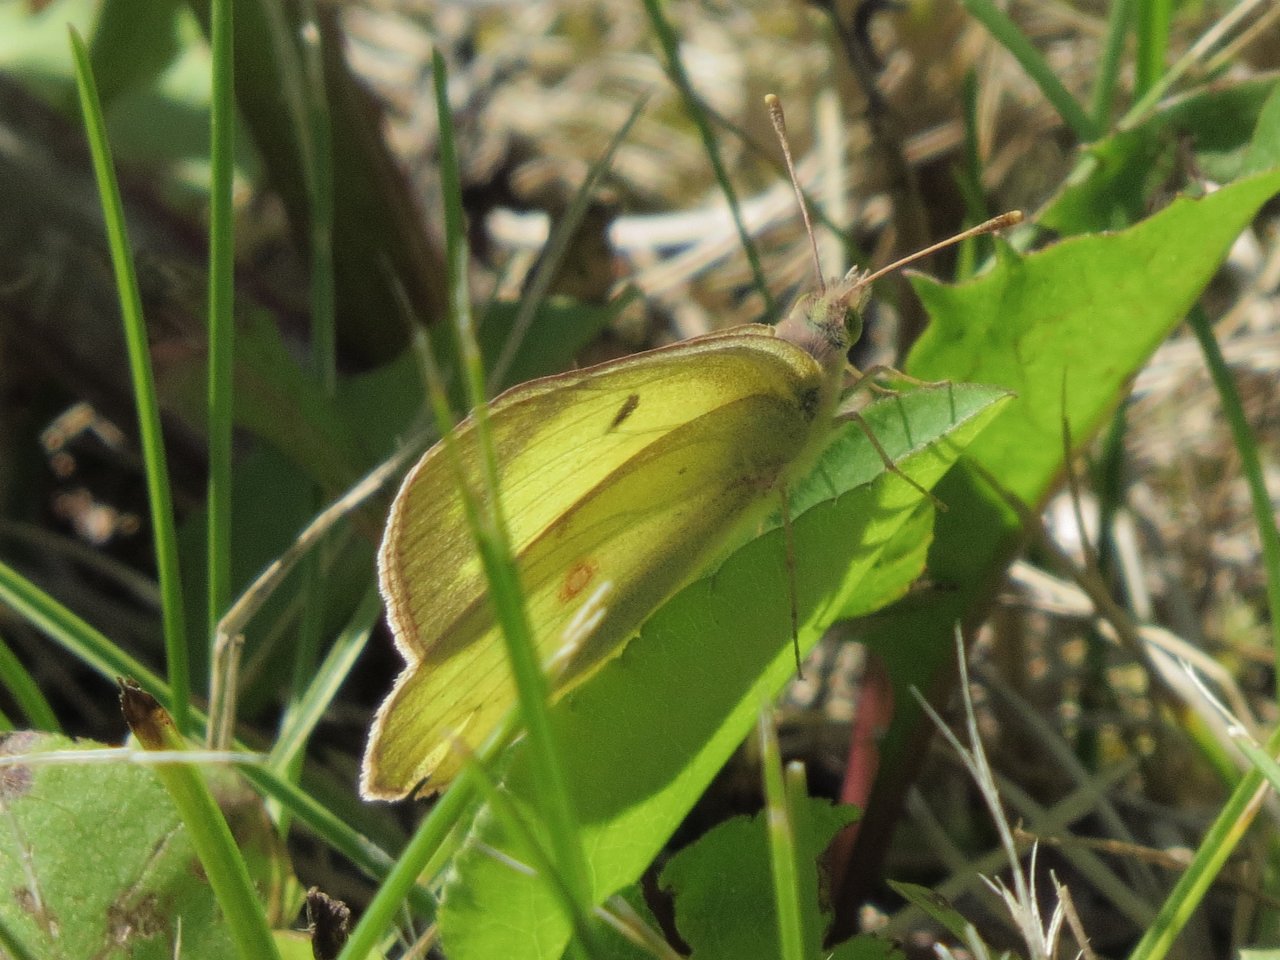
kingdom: Animalia
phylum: Arthropoda
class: Insecta
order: Lepidoptera
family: Pieridae
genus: Colias
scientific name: Colias philodice
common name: Clouded Sulphur
